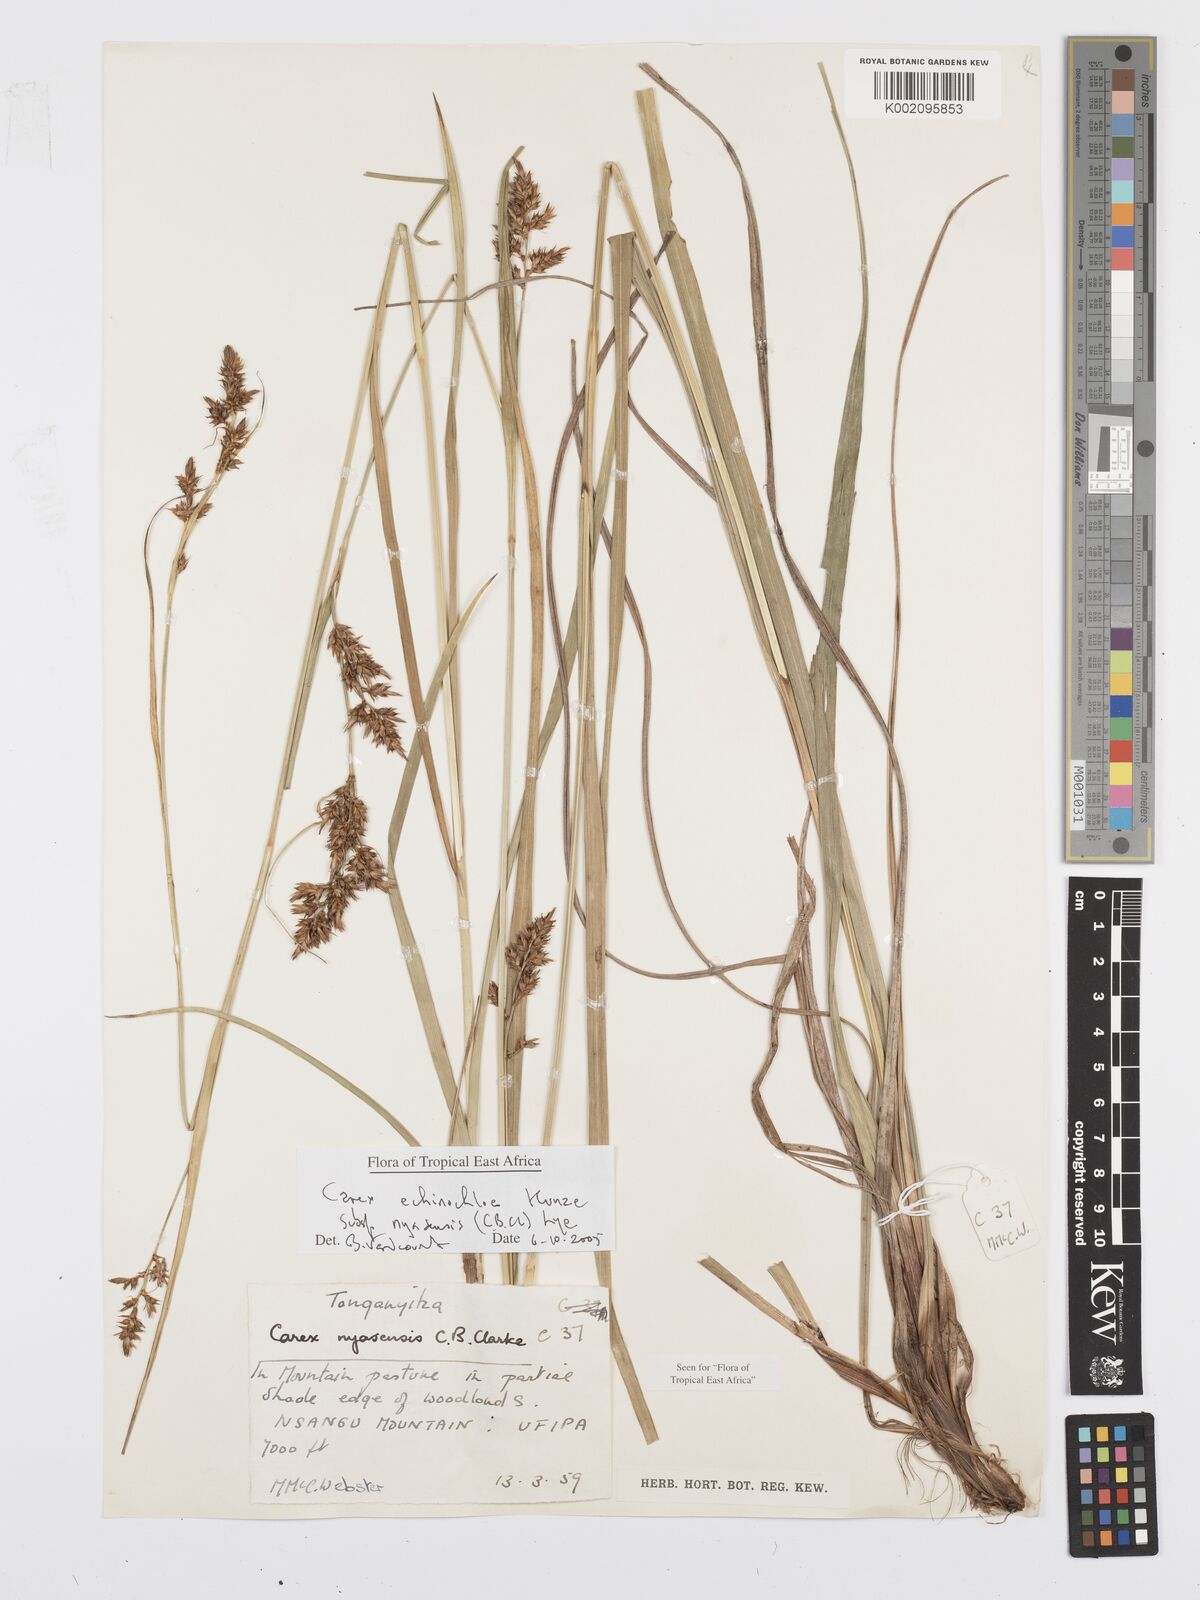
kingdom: Plantae
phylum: Tracheophyta
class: Liliopsida
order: Poales
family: Cyperaceae
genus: Carex
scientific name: Carex spicatopaniculata
